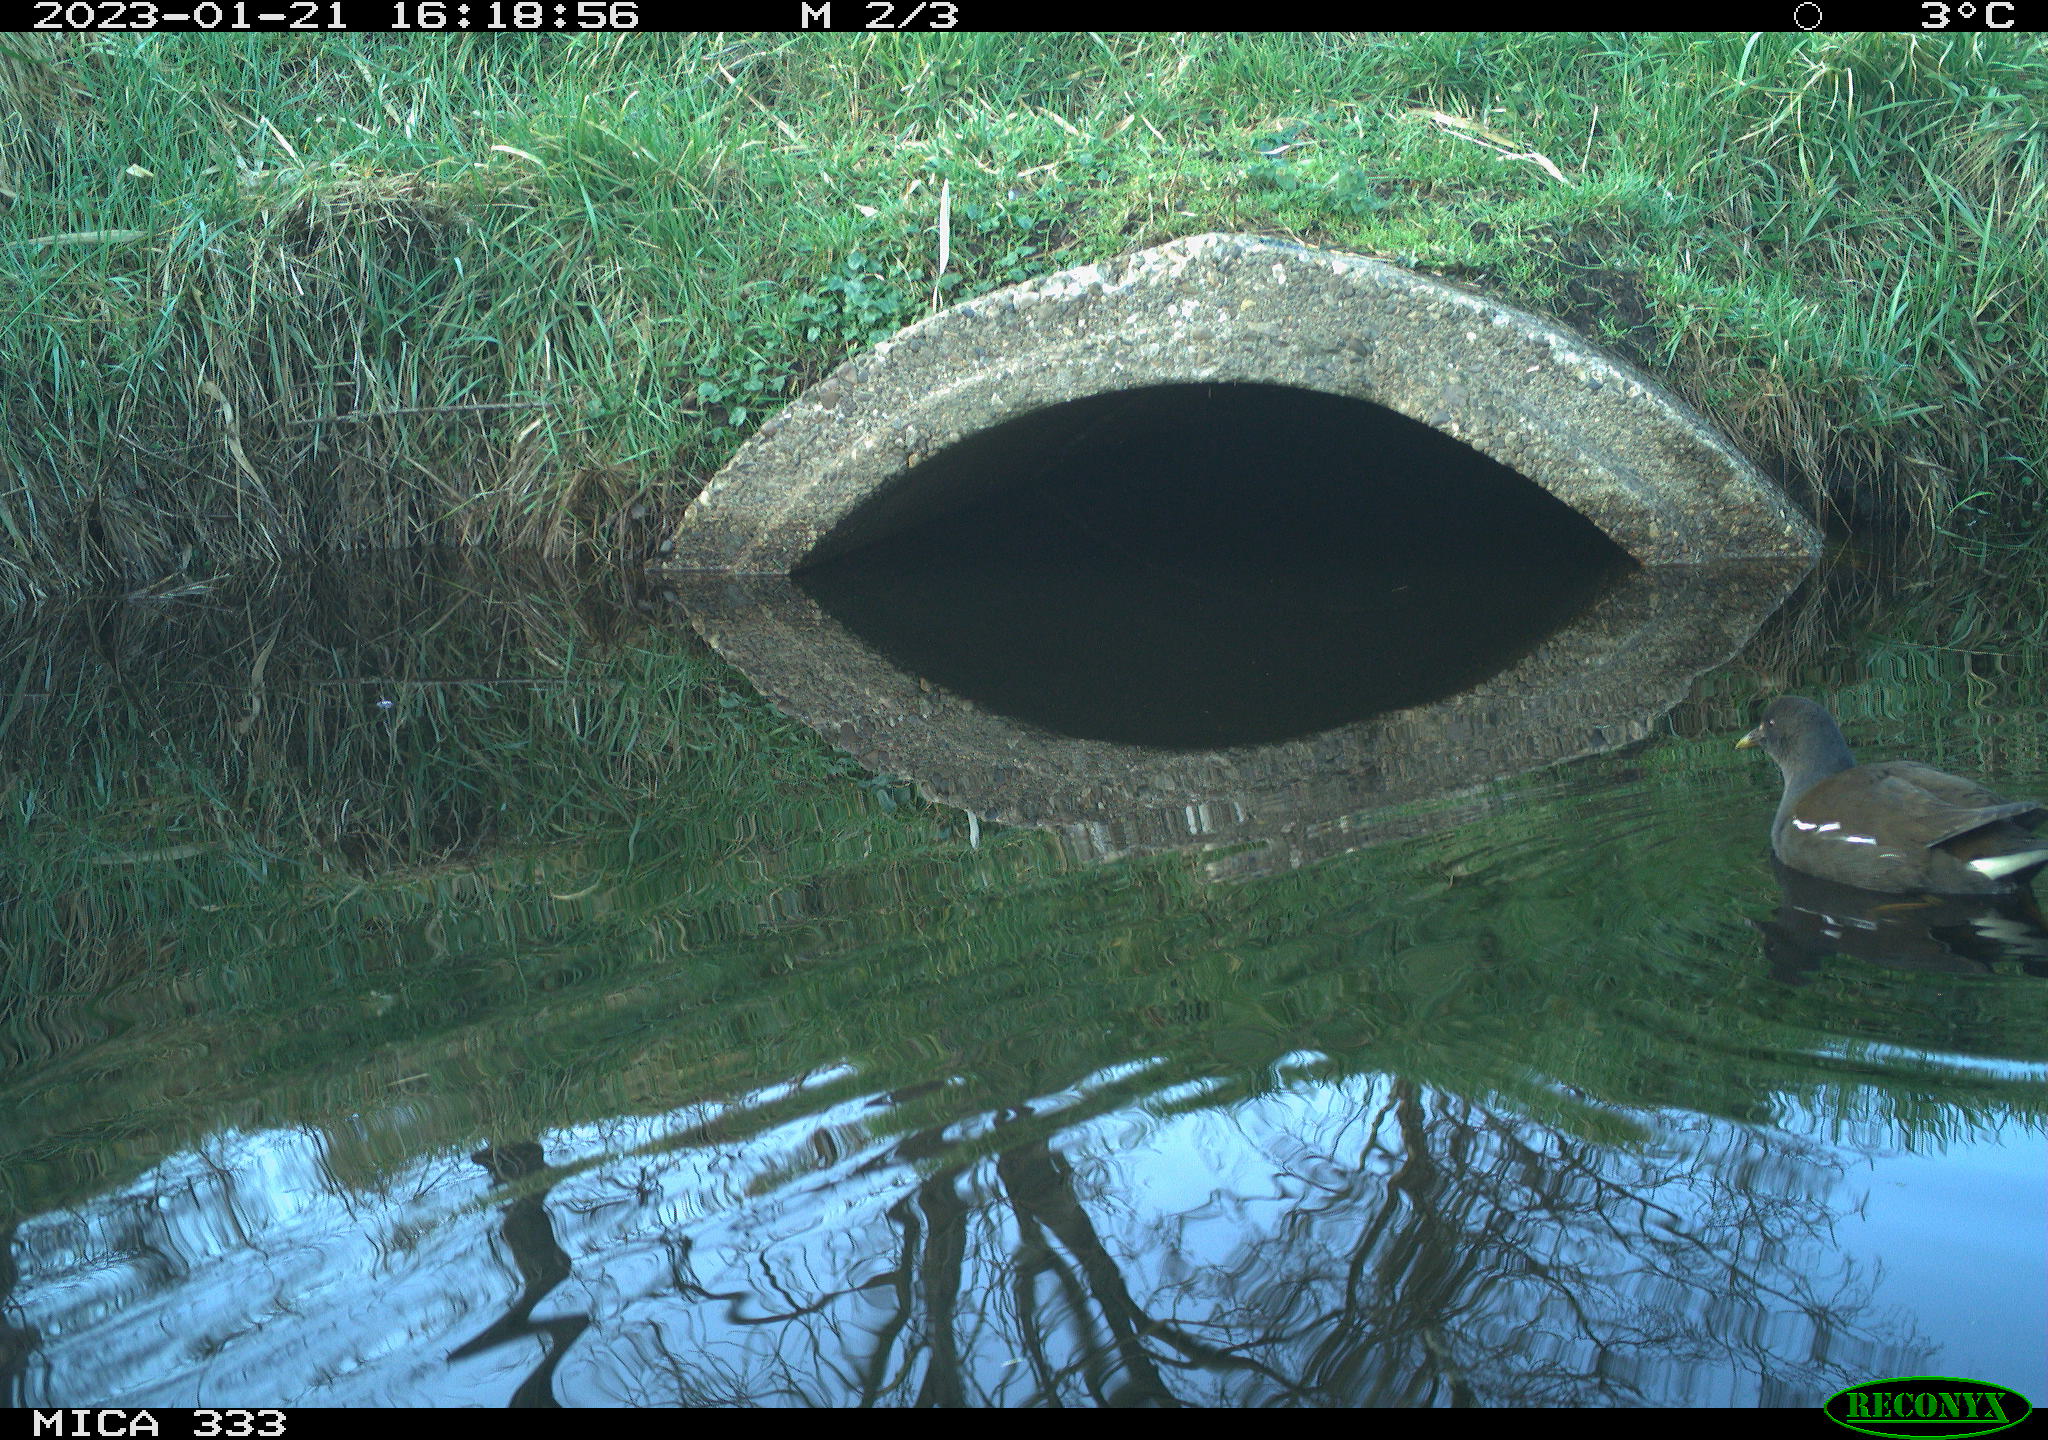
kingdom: Animalia
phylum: Chordata
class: Aves
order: Gruiformes
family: Rallidae
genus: Gallinula
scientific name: Gallinula chloropus
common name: Common moorhen
